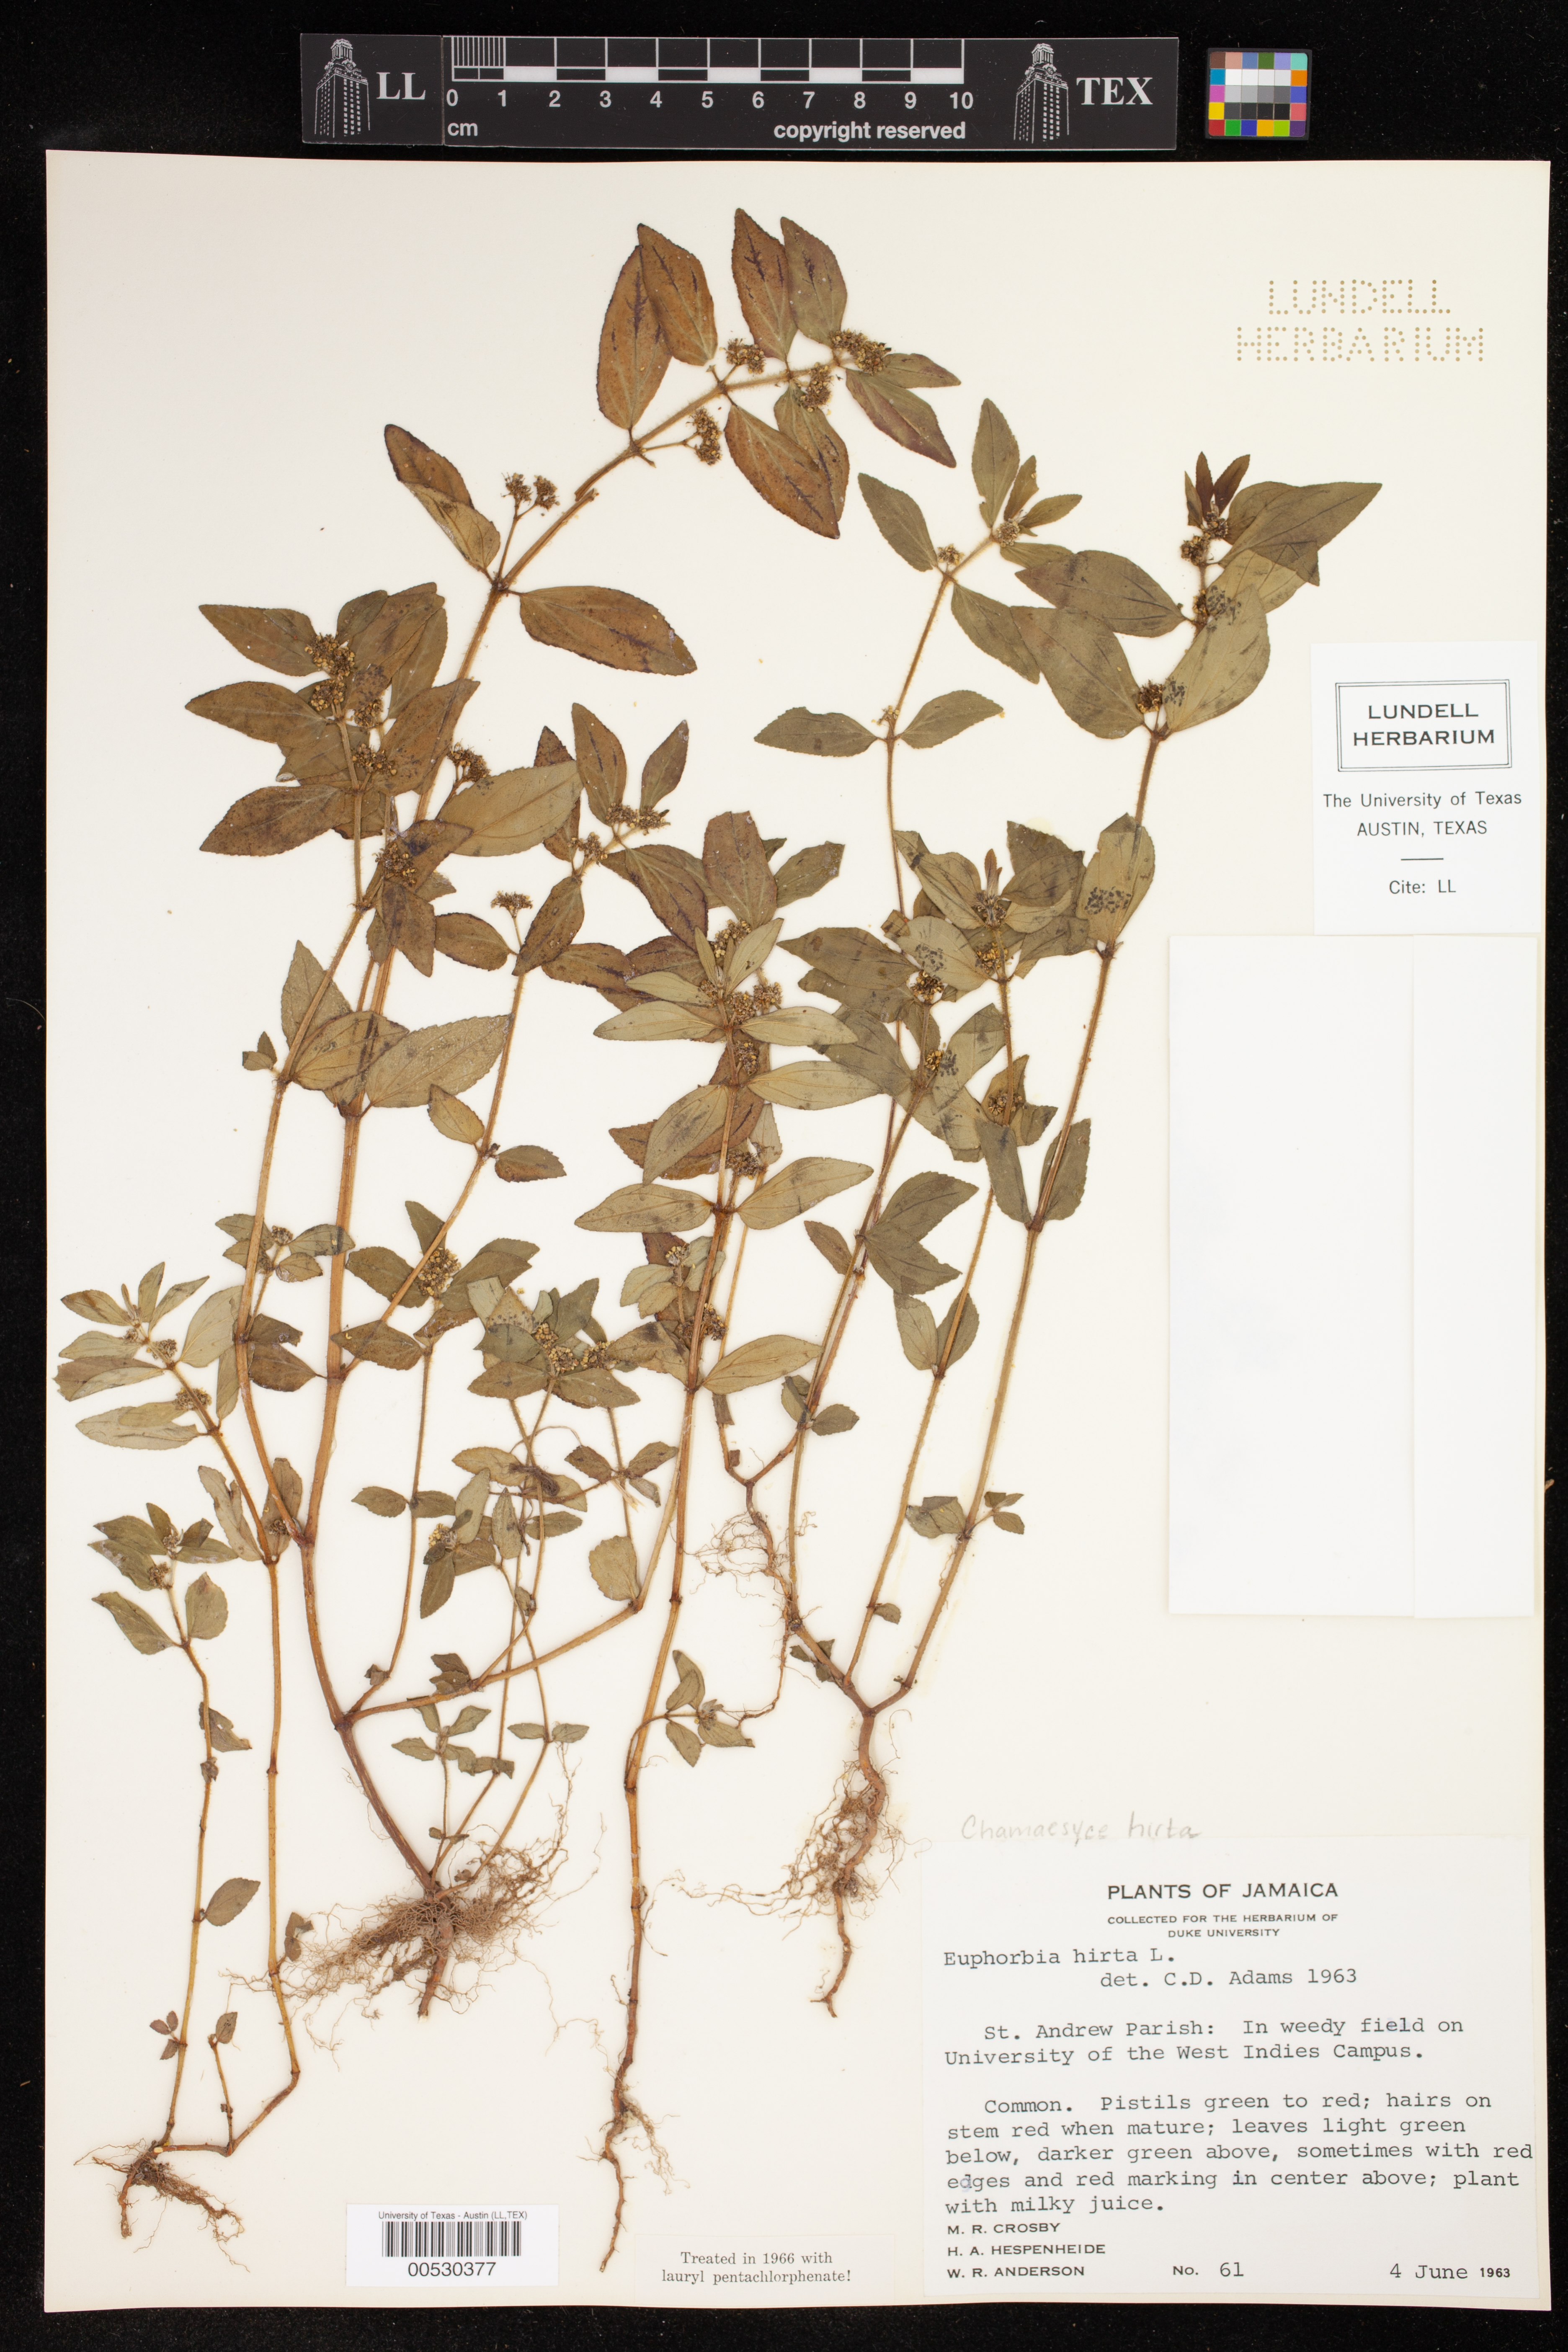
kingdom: Plantae
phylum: Tracheophyta
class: Magnoliopsida
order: Malpighiales
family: Euphorbiaceae
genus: Euphorbia
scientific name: Euphorbia hirta
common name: Pillpod sandmat
